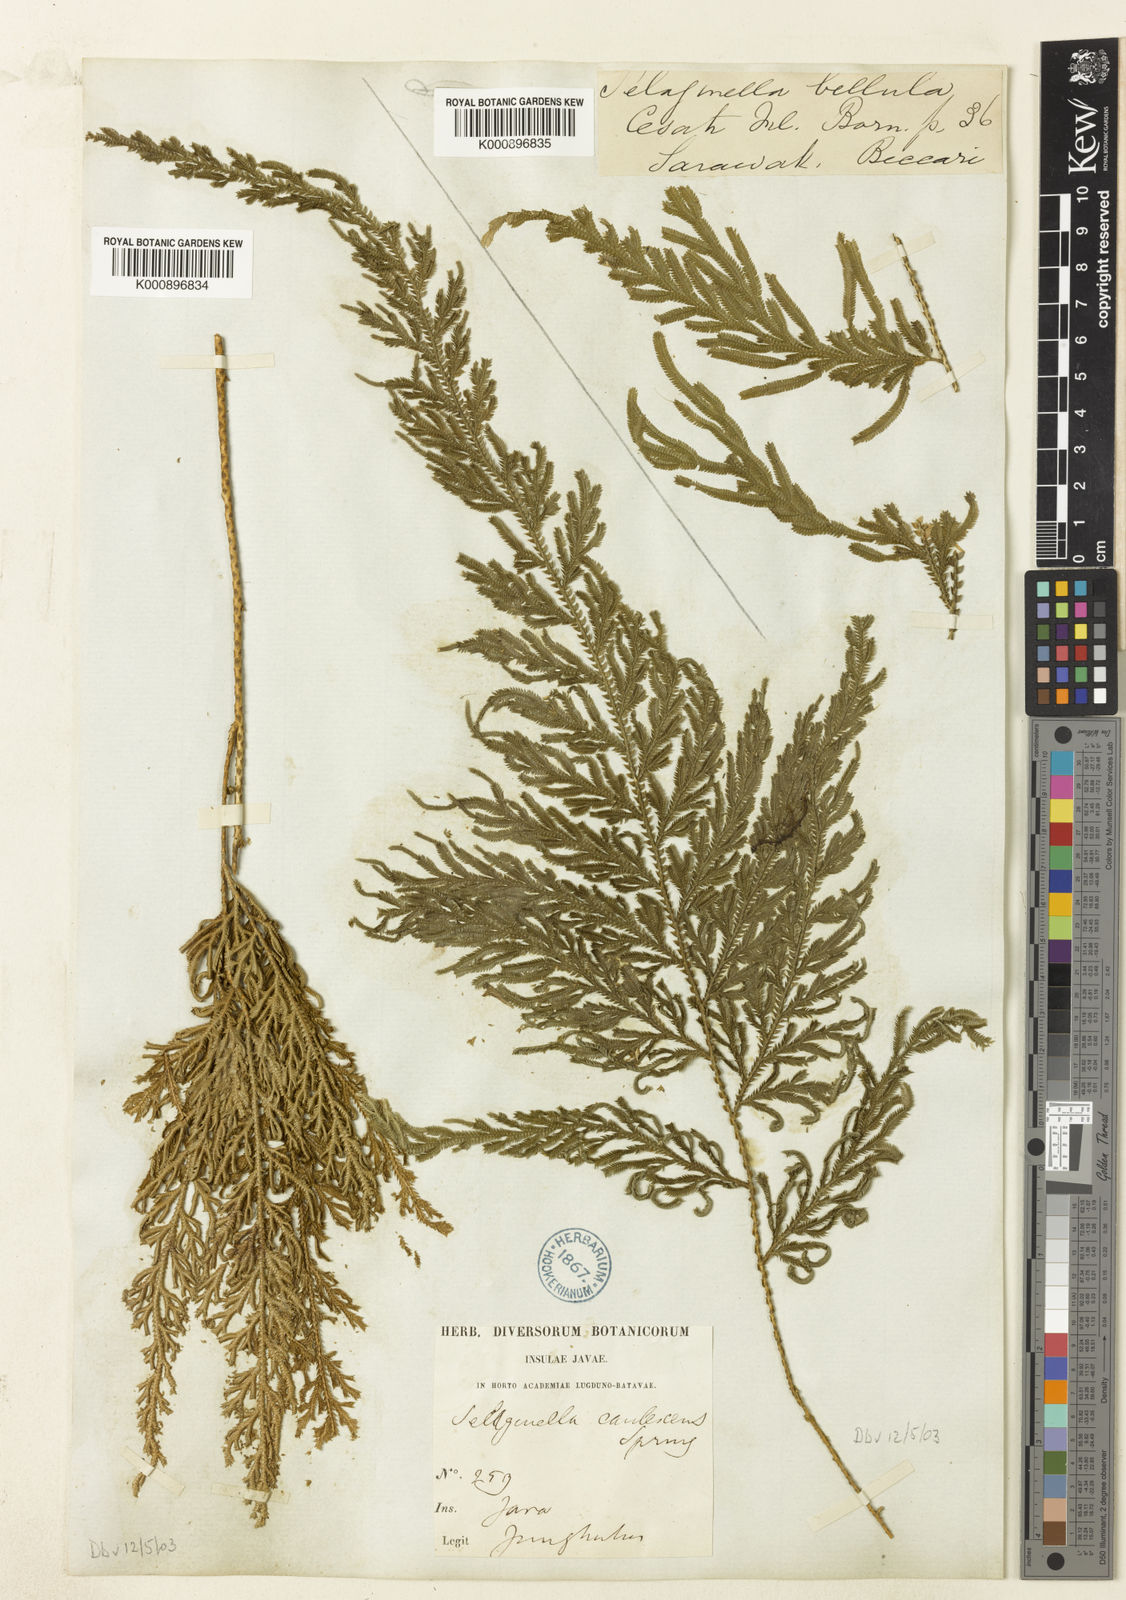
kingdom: Plantae
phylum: Tracheophyta
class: Lycopodiopsida
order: Selaginellales
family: Selaginellaceae
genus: Selaginella
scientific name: Selaginella
